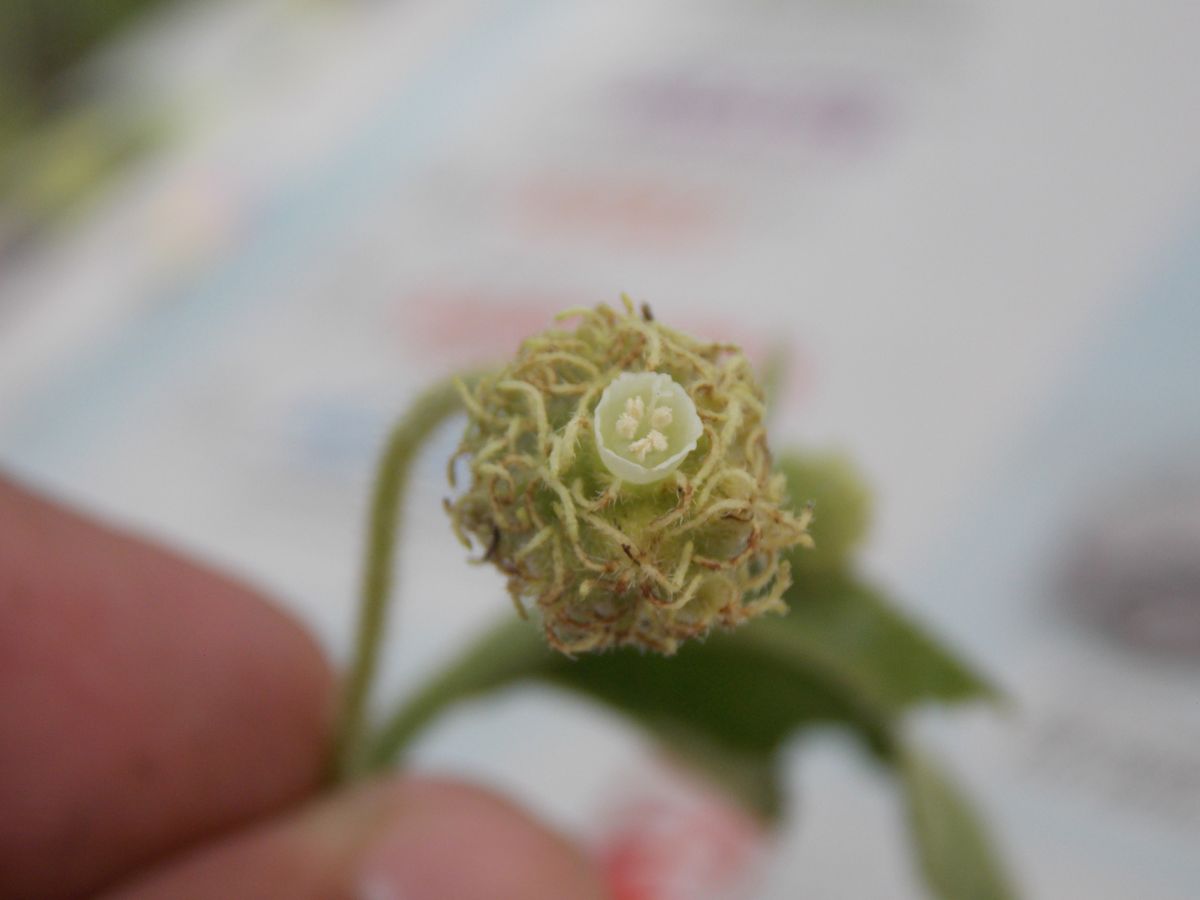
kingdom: Plantae
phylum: Tracheophyta
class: Magnoliopsida
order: Boraginales
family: Cordiaceae
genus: Varronia
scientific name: Varronia bullata
